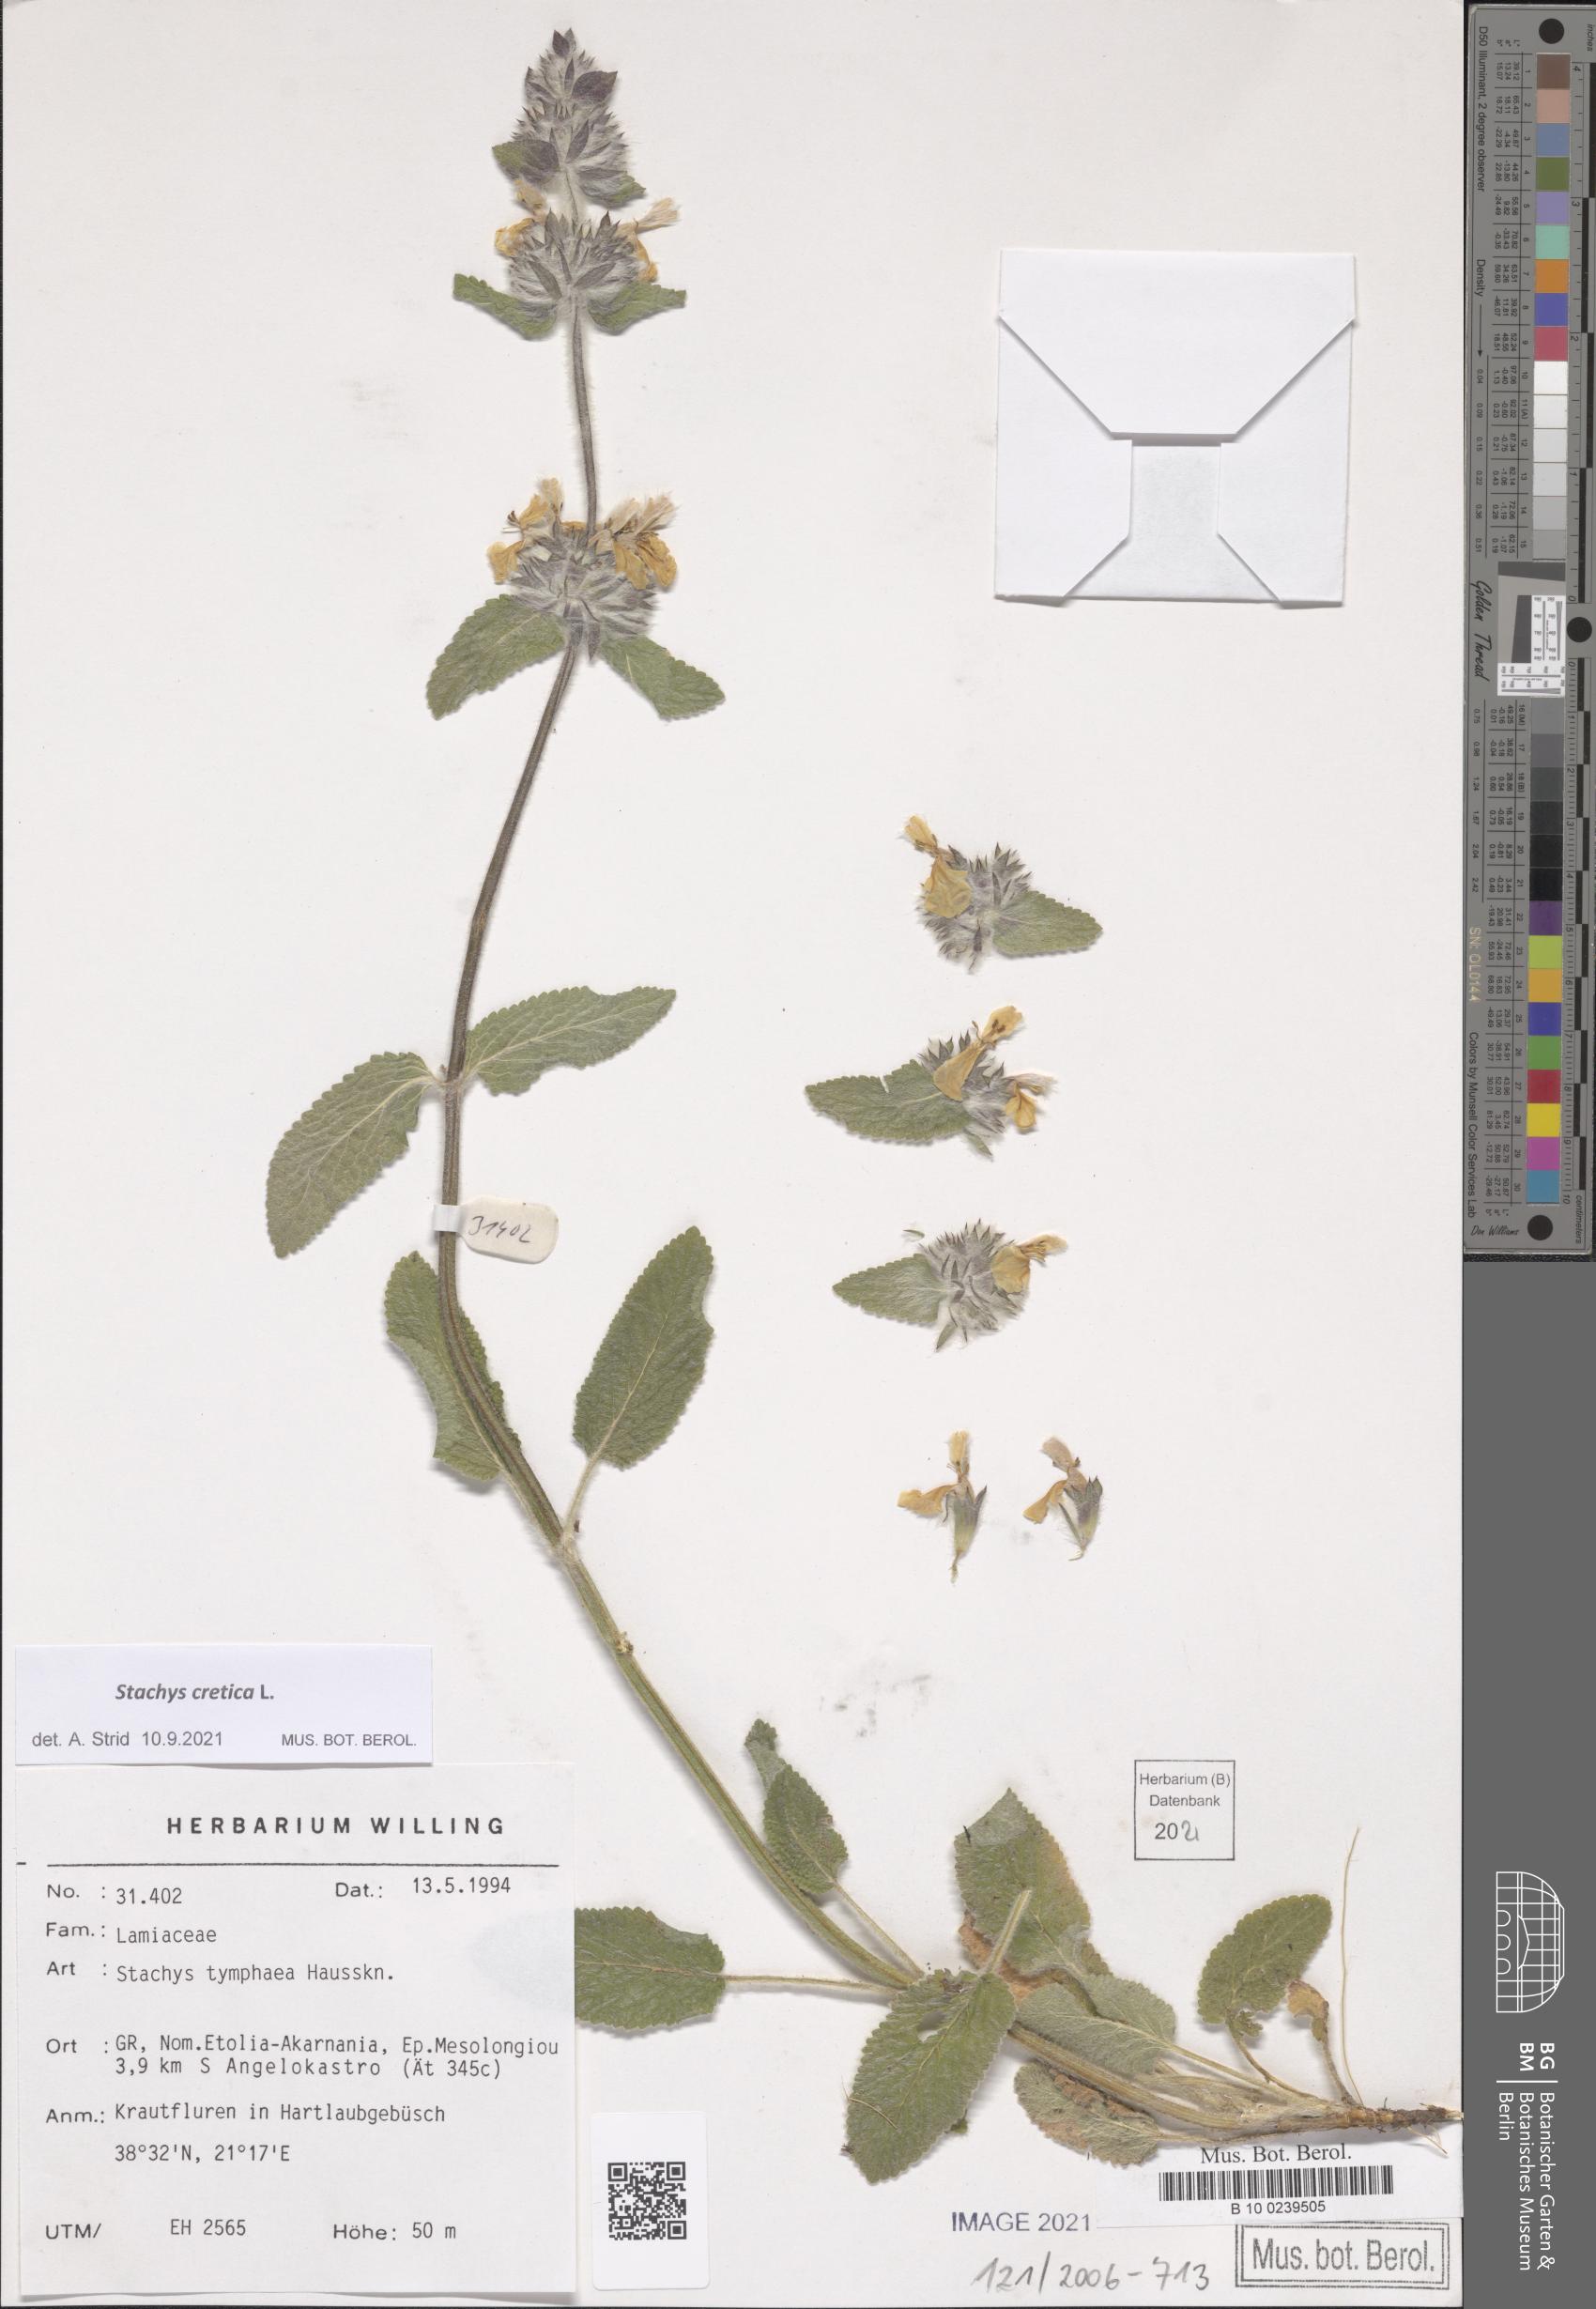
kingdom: Plantae
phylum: Tracheophyta
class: Magnoliopsida
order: Lamiales
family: Lamiaceae
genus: Stachys
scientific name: Stachys cretica
